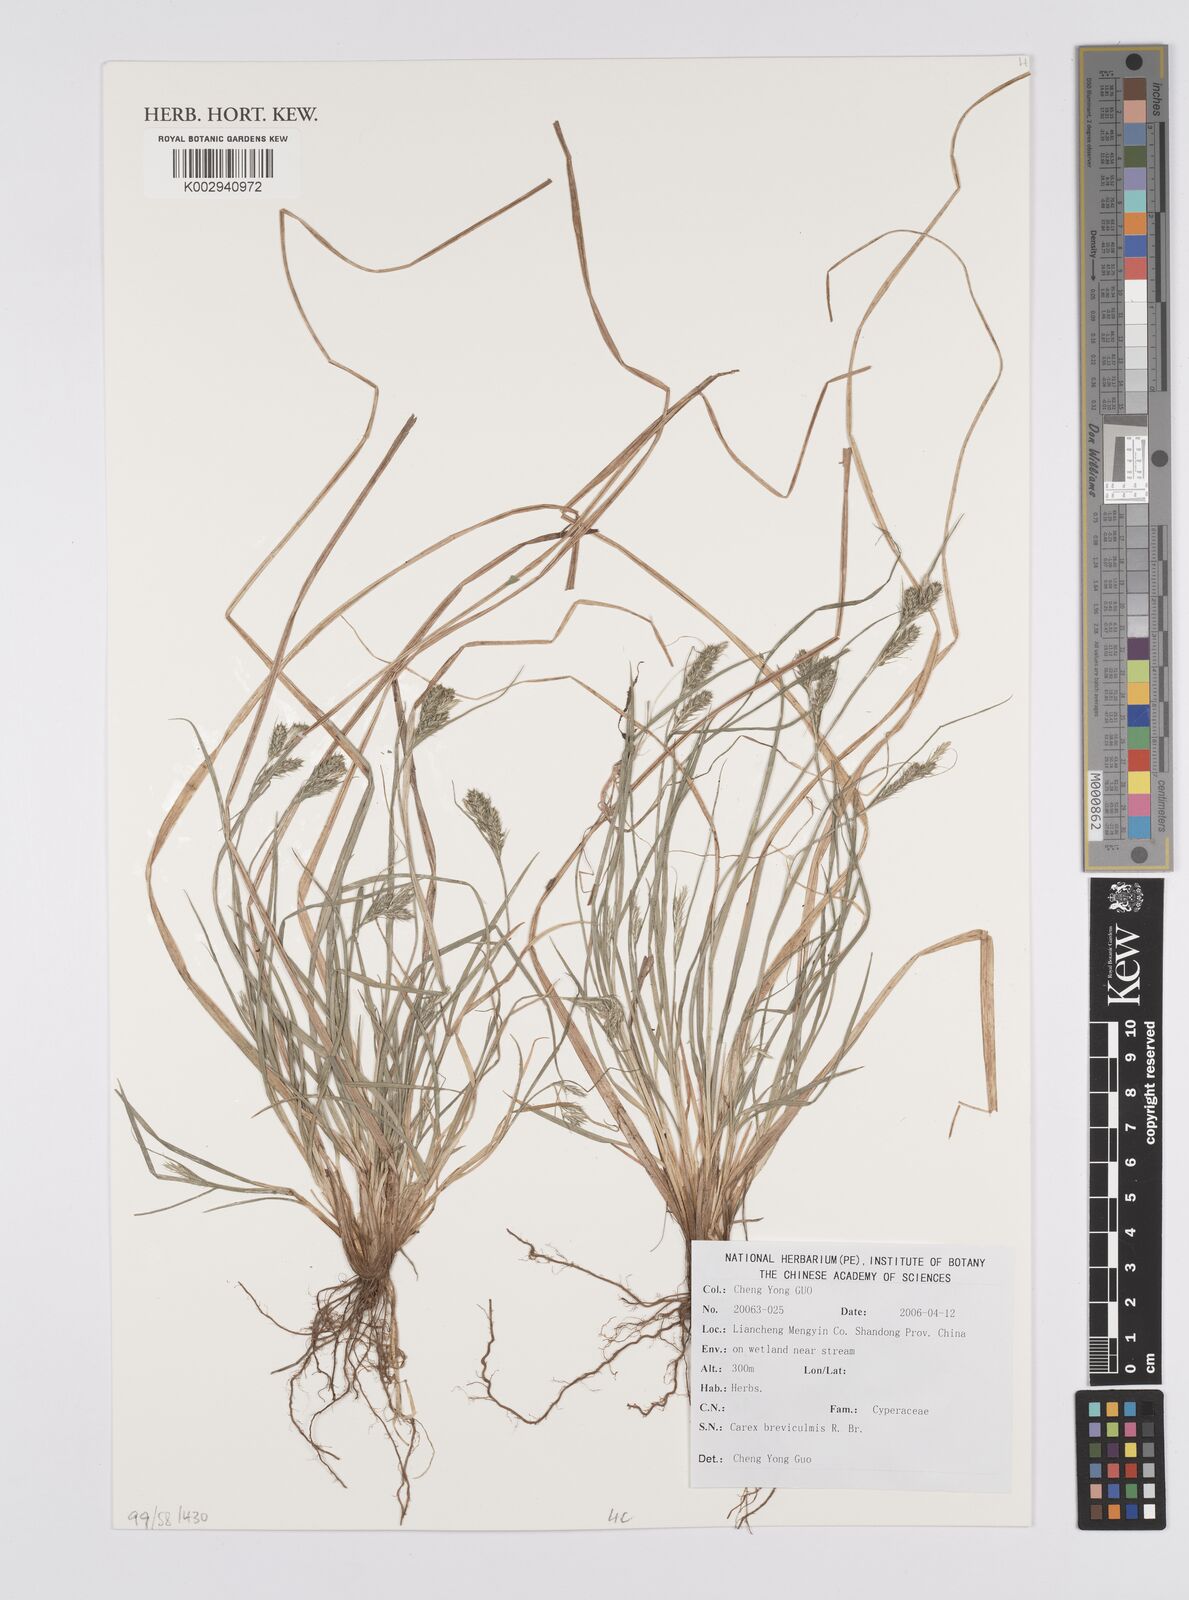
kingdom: Plantae
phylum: Tracheophyta
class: Liliopsida
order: Poales
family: Cyperaceae
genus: Carex
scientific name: Carex breviculmis
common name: Asian shortstem sedge
